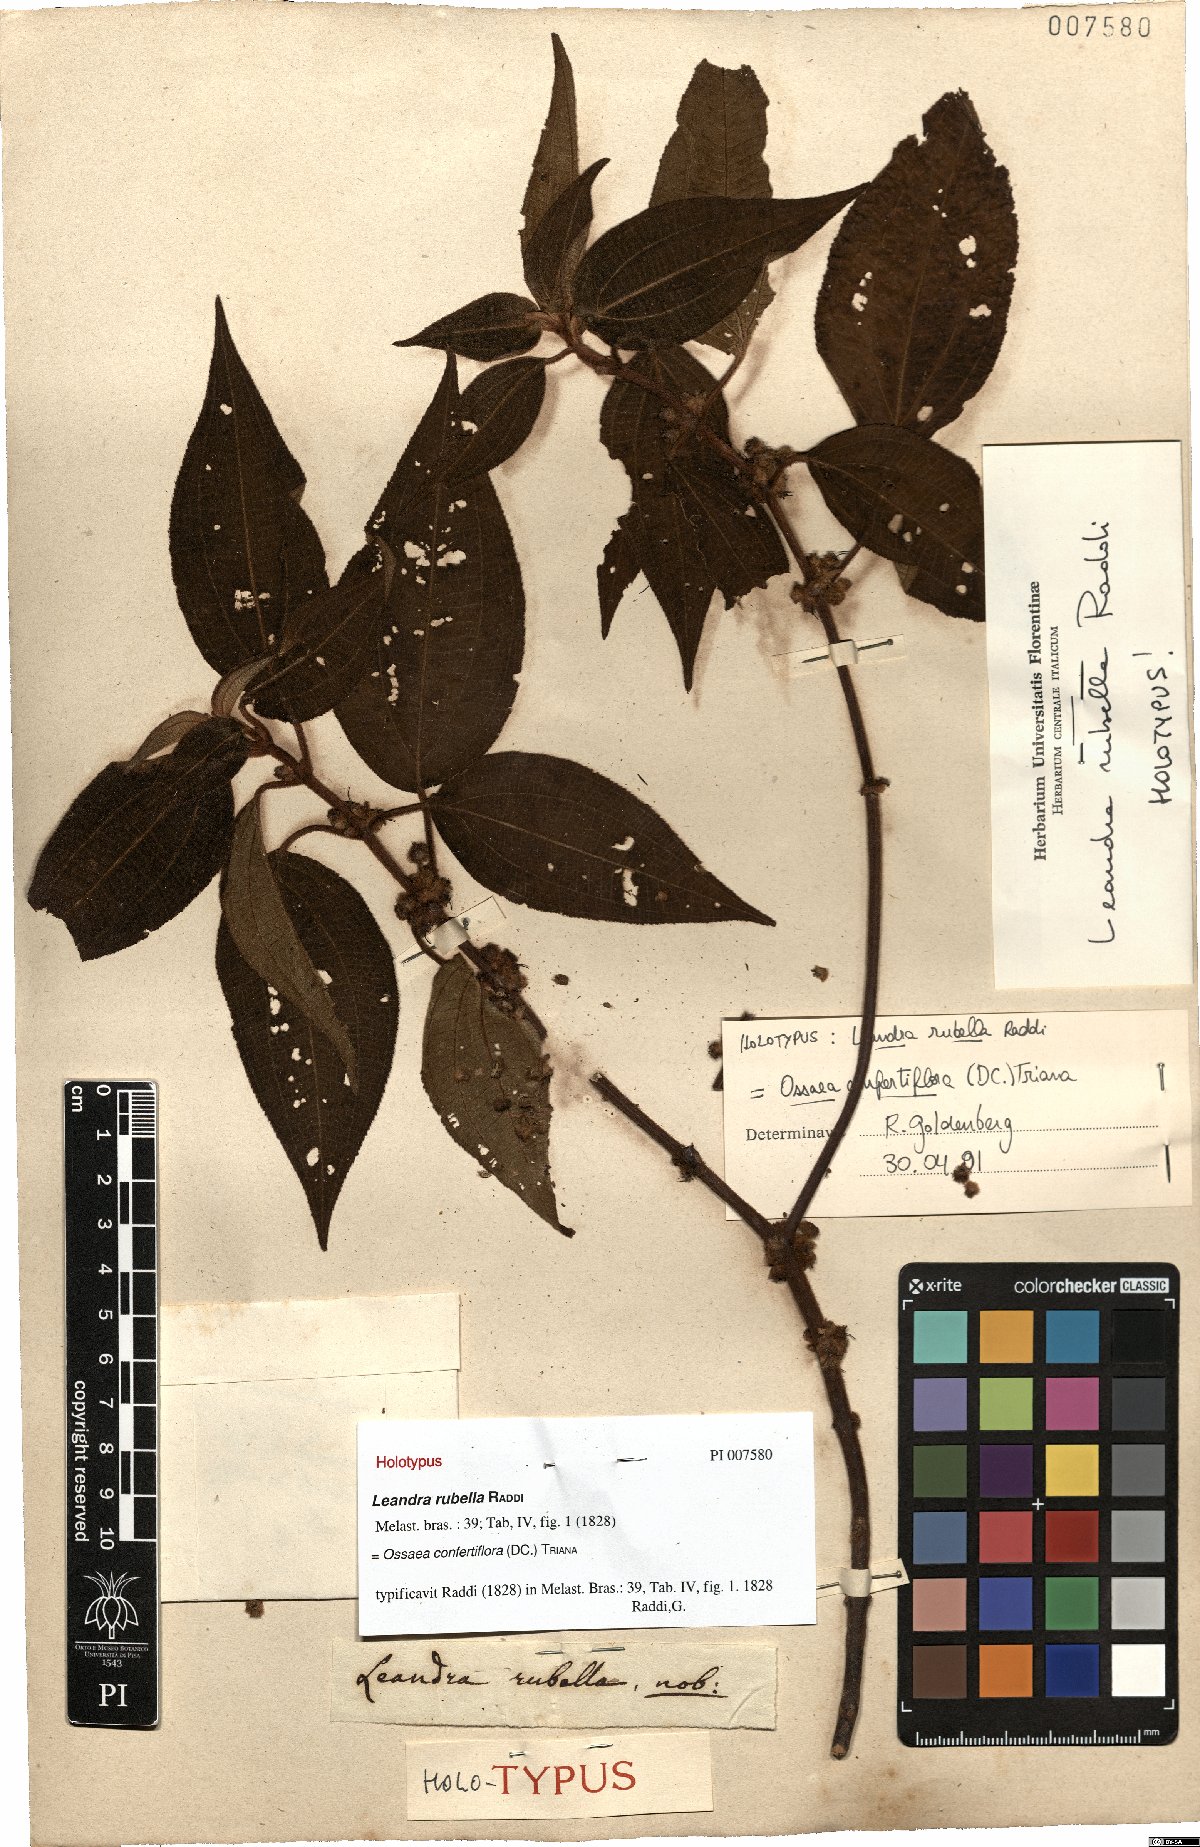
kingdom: Plantae
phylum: Tracheophyta
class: Magnoliopsida
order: Myrtales
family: Melastomataceae
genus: Miconia
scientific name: Miconia rubella
